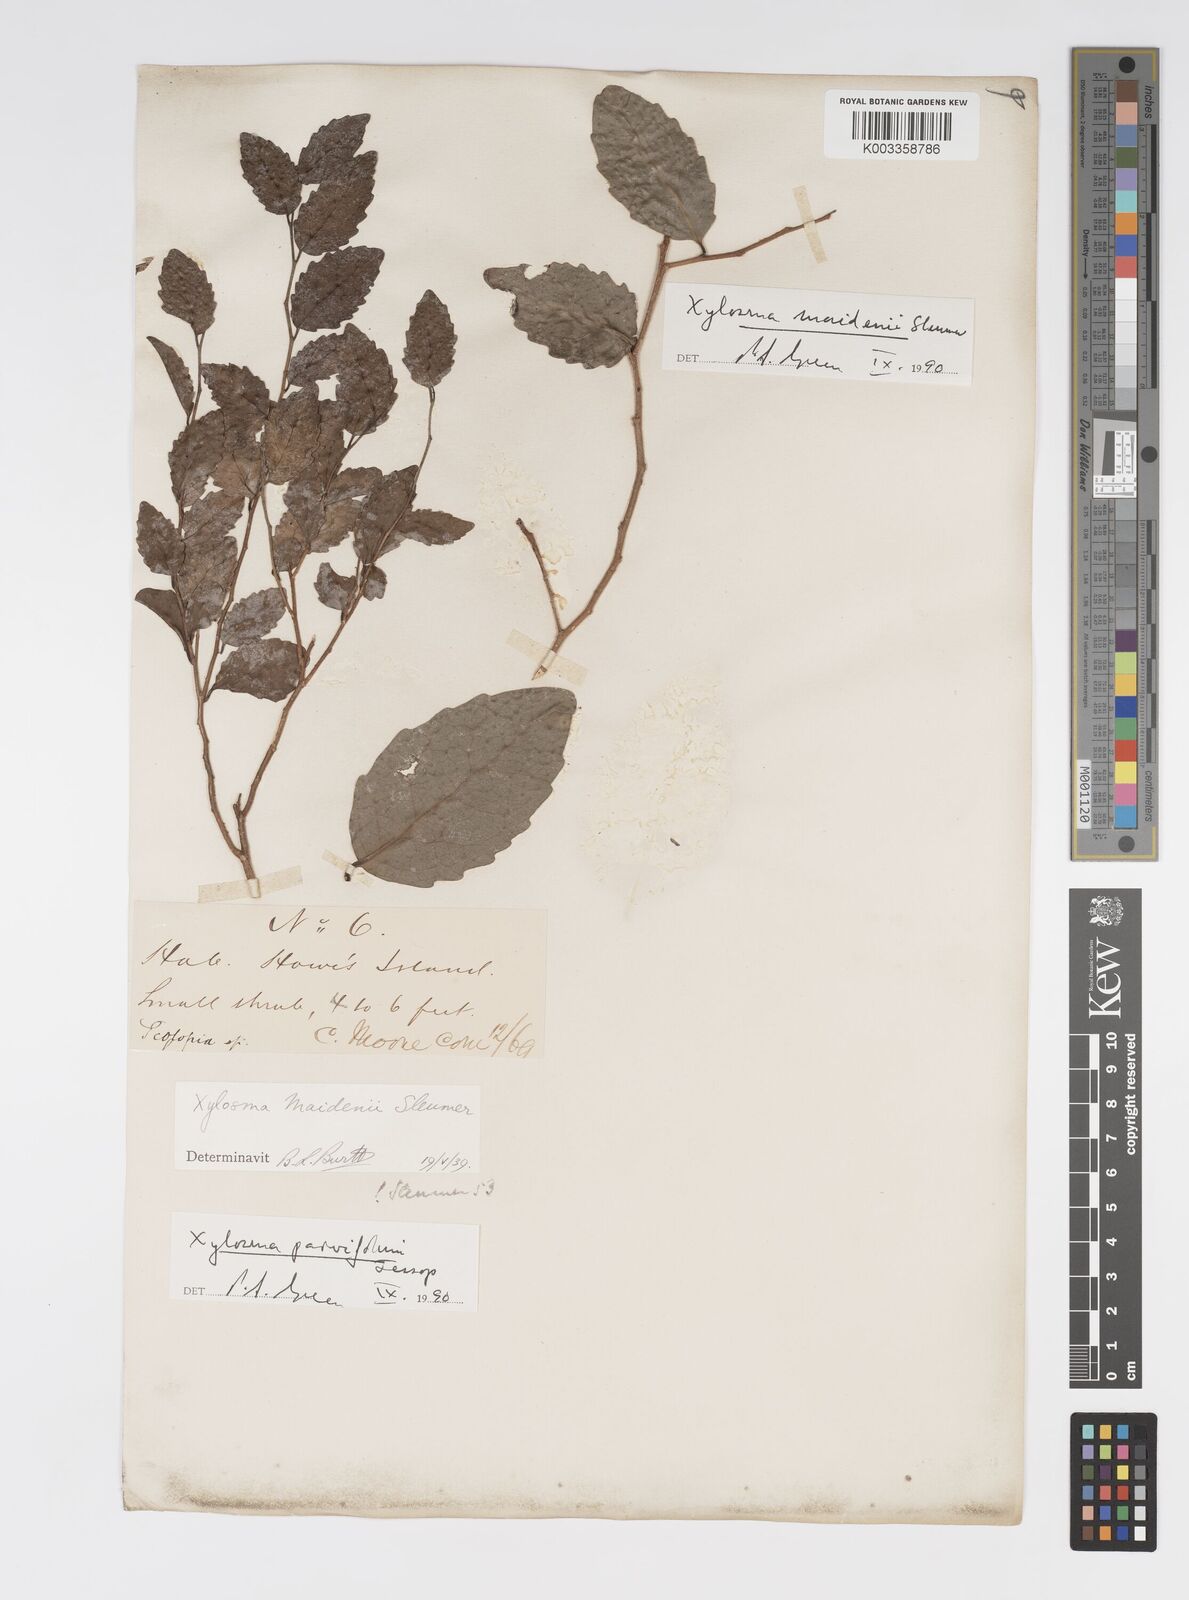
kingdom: Plantae
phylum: Tracheophyta
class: Magnoliopsida
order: Malpighiales
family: Salicaceae
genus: Xylosma
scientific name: Xylosma parvifolia
